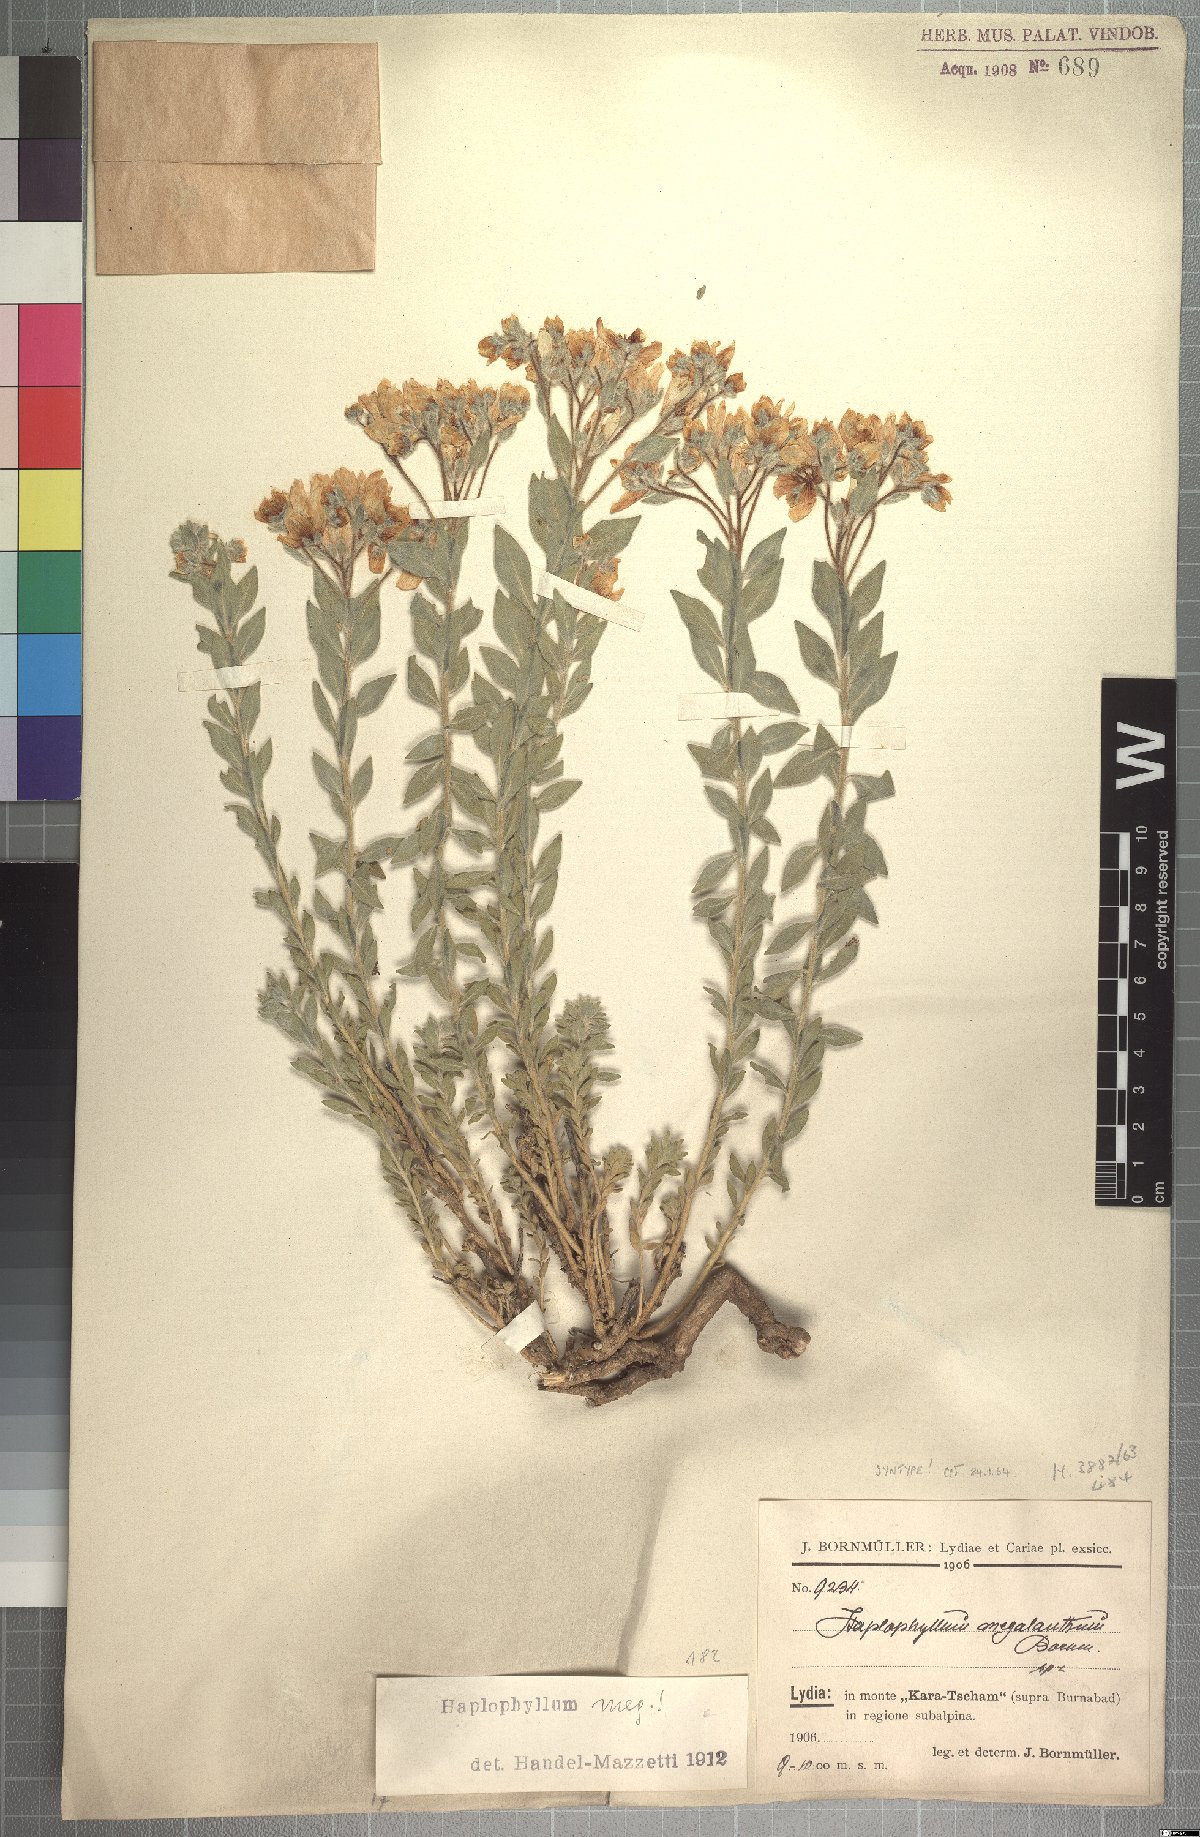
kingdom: Plantae
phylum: Tracheophyta
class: Magnoliopsida
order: Sapindales
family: Rutaceae
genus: Haplophyllum
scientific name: Haplophyllum megalanthum
